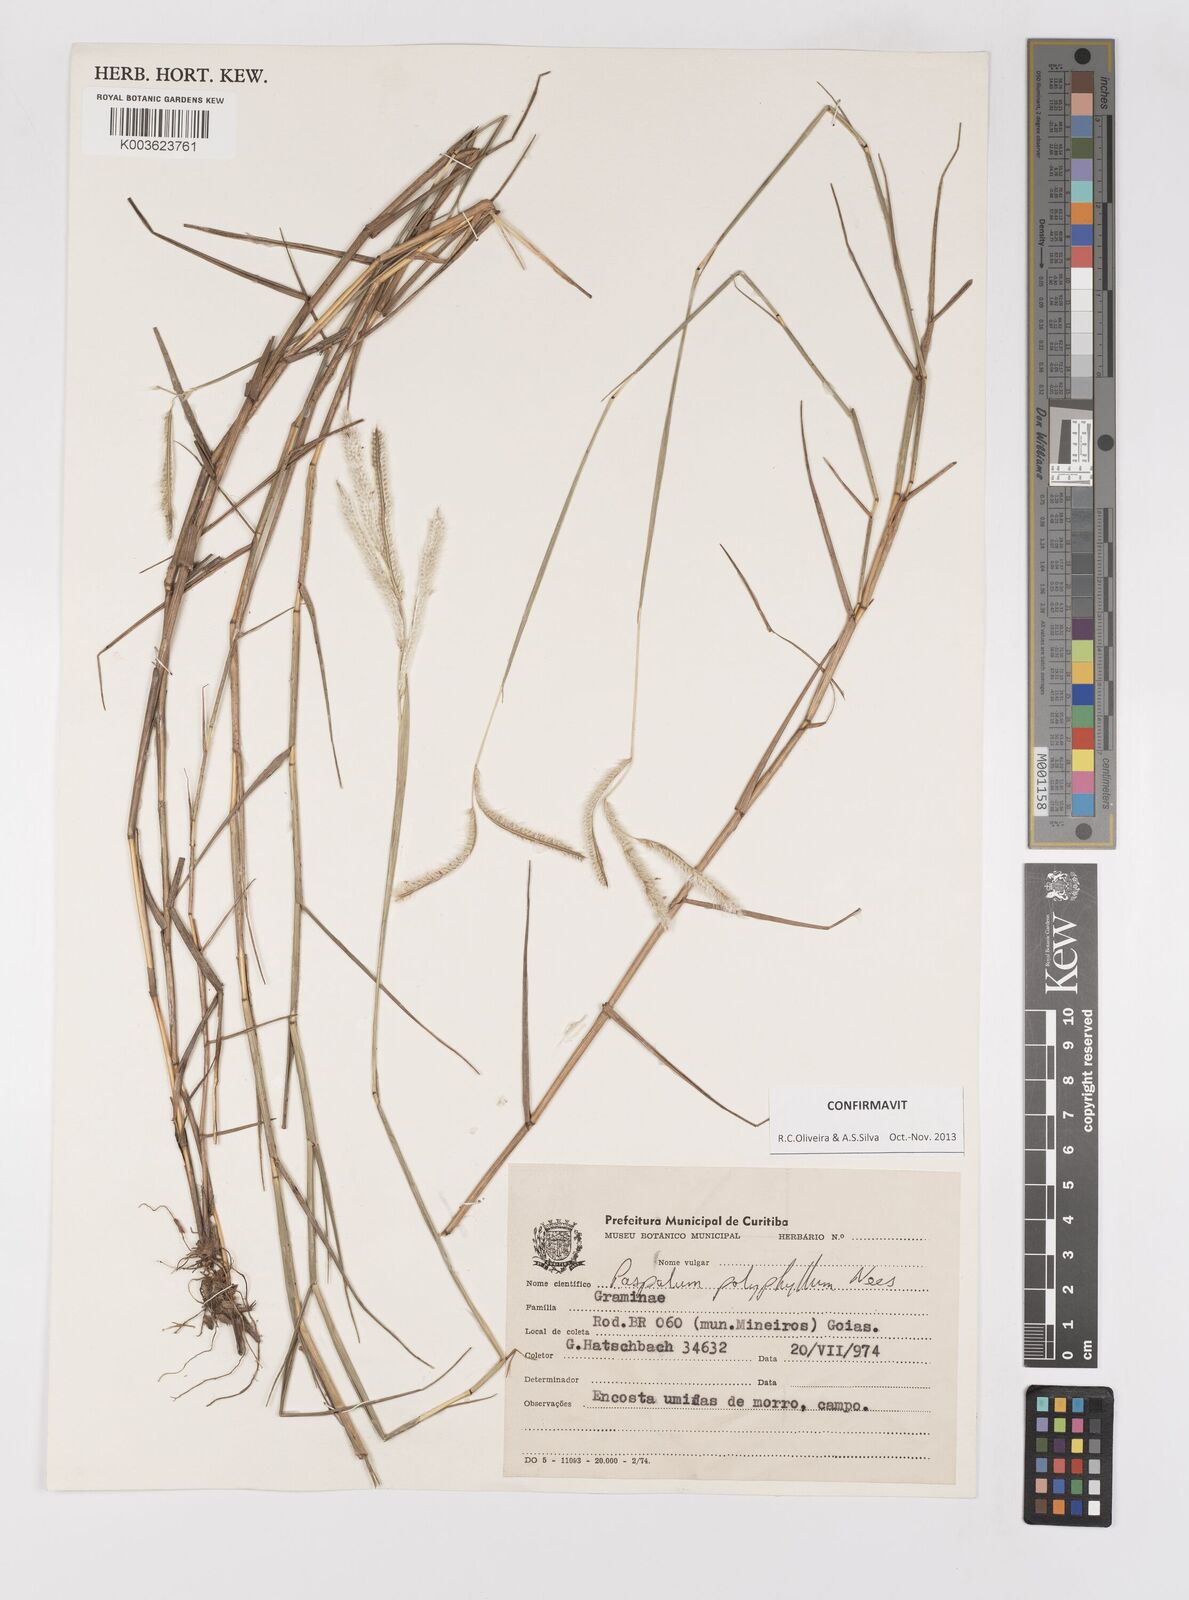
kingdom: Plantae
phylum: Tracheophyta
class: Liliopsida
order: Poales
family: Poaceae
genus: Paspalum
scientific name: Paspalum polyphyllum
